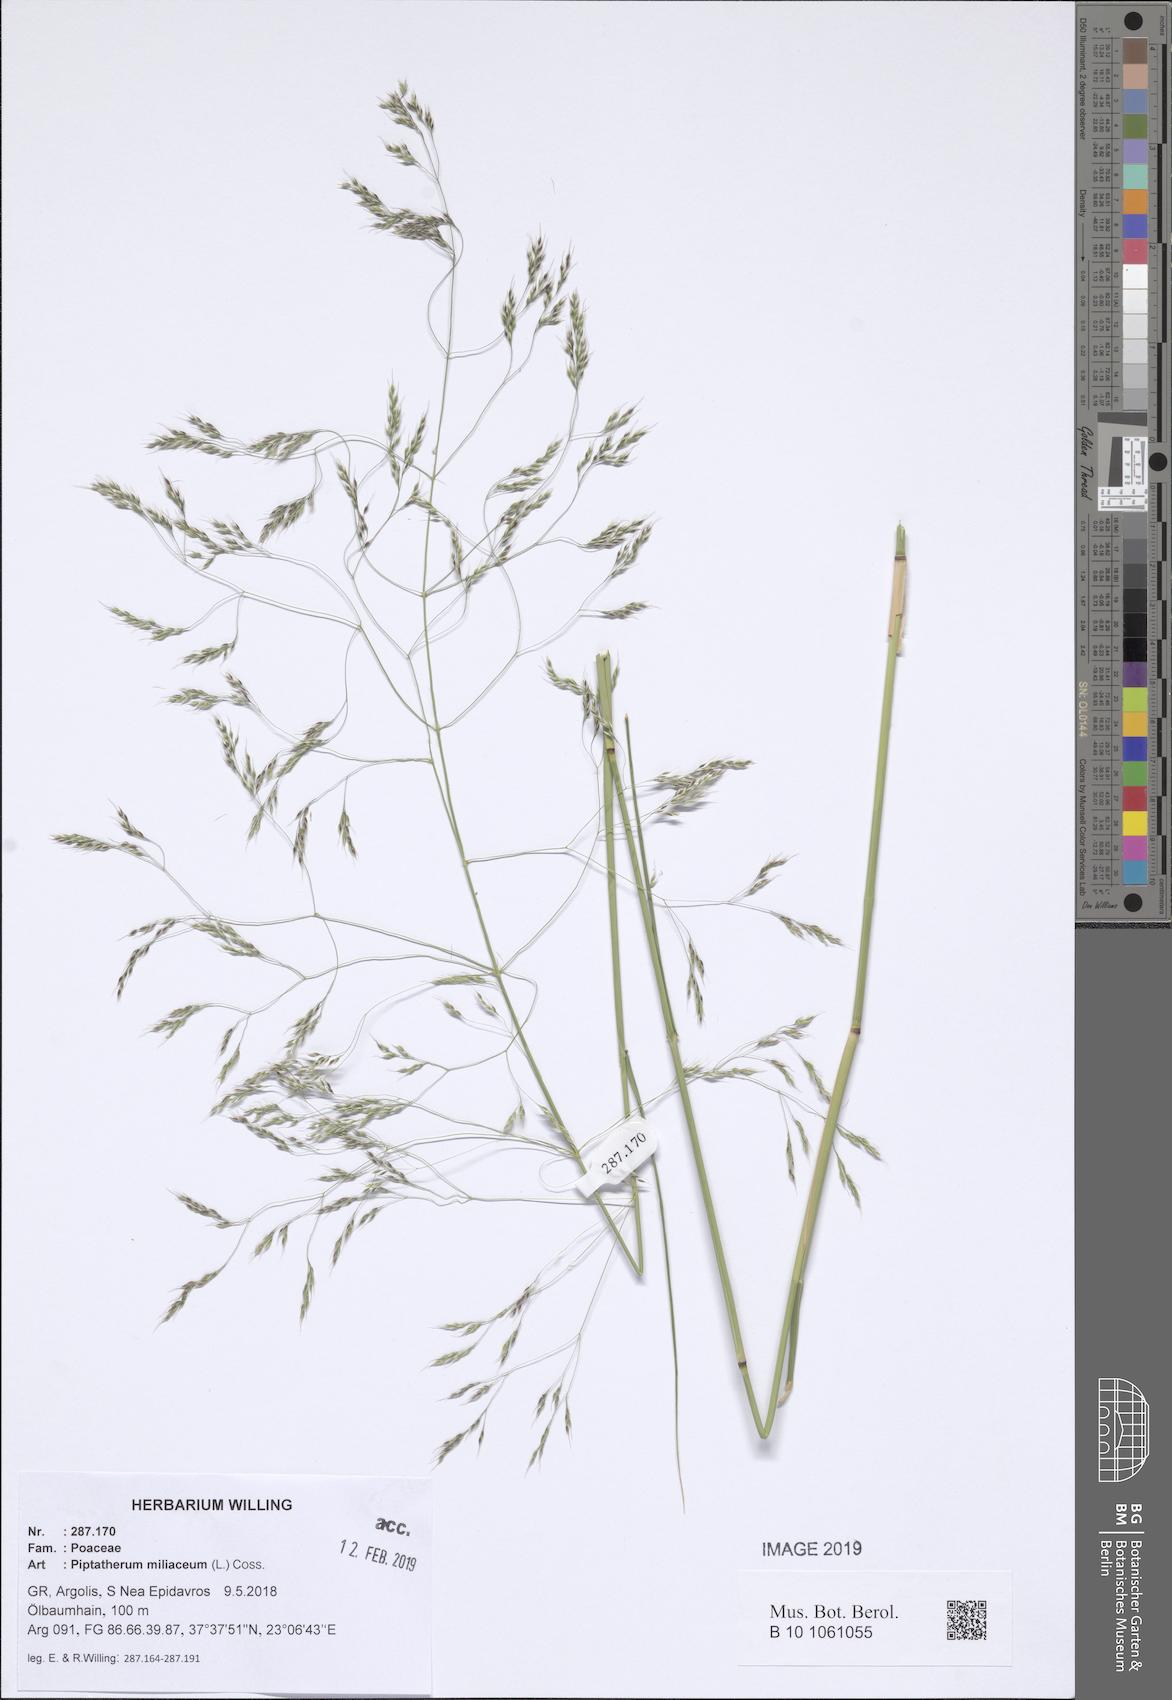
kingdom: Plantae
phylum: Tracheophyta
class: Liliopsida
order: Poales
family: Poaceae
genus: Oloptum
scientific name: Oloptum miliaceum
